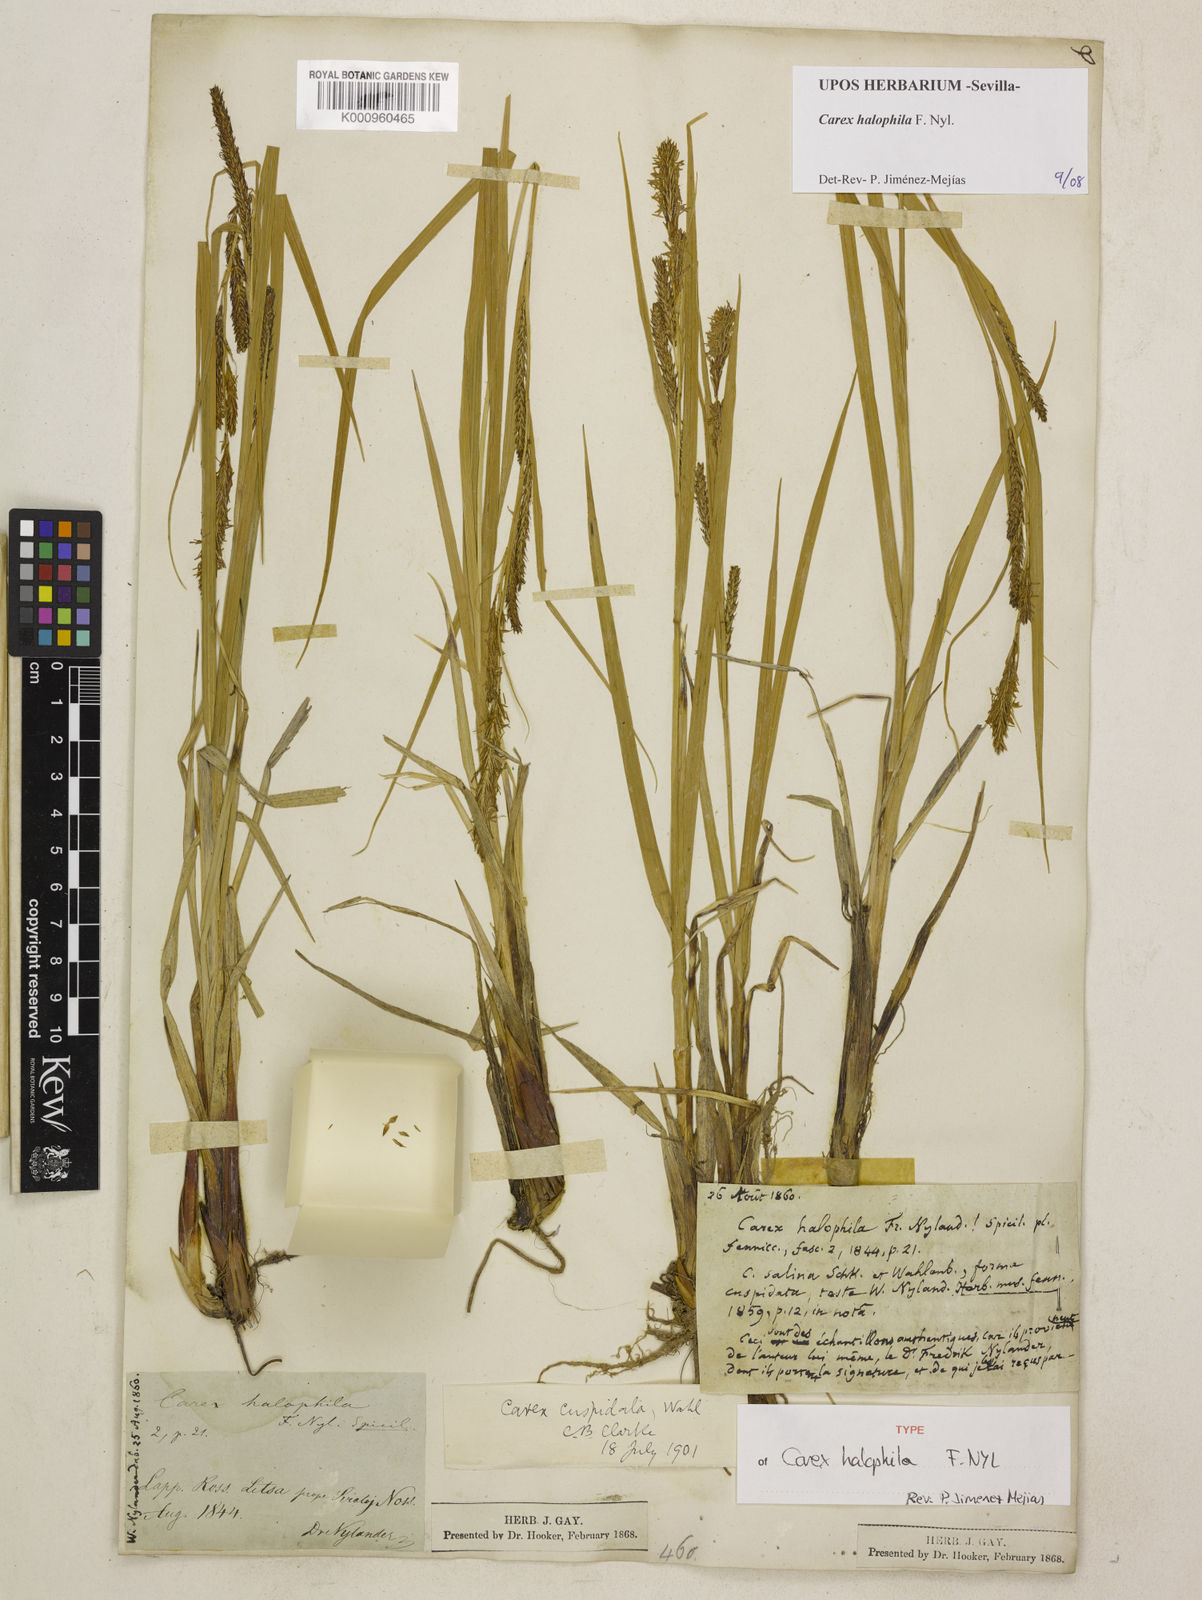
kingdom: Plantae
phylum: Tracheophyta
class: Liliopsida
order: Poales
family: Cyperaceae
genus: Carex
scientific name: Carex aquatilis
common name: Water sedge
